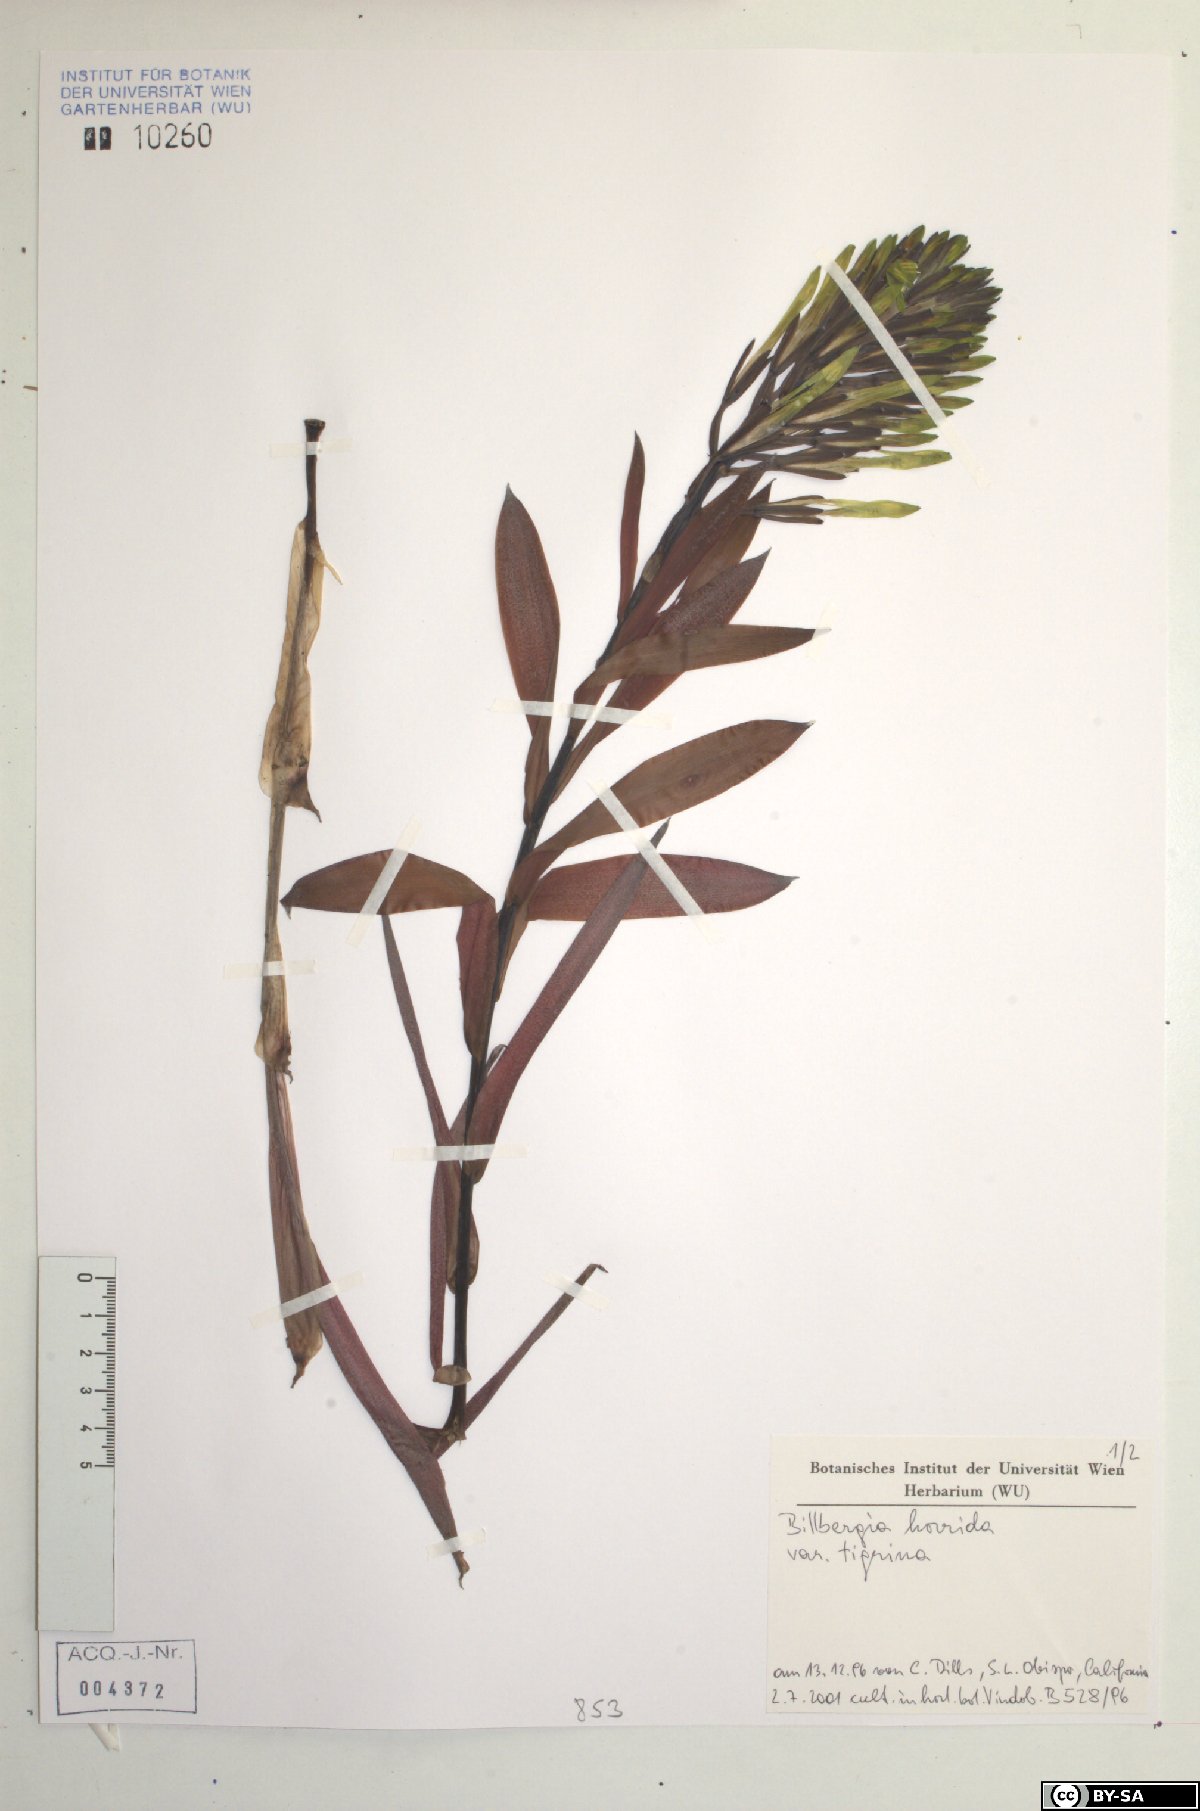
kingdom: Plantae
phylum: Tracheophyta
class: Liliopsida
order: Poales
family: Bromeliaceae
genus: Billbergia
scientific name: Billbergia horrida
